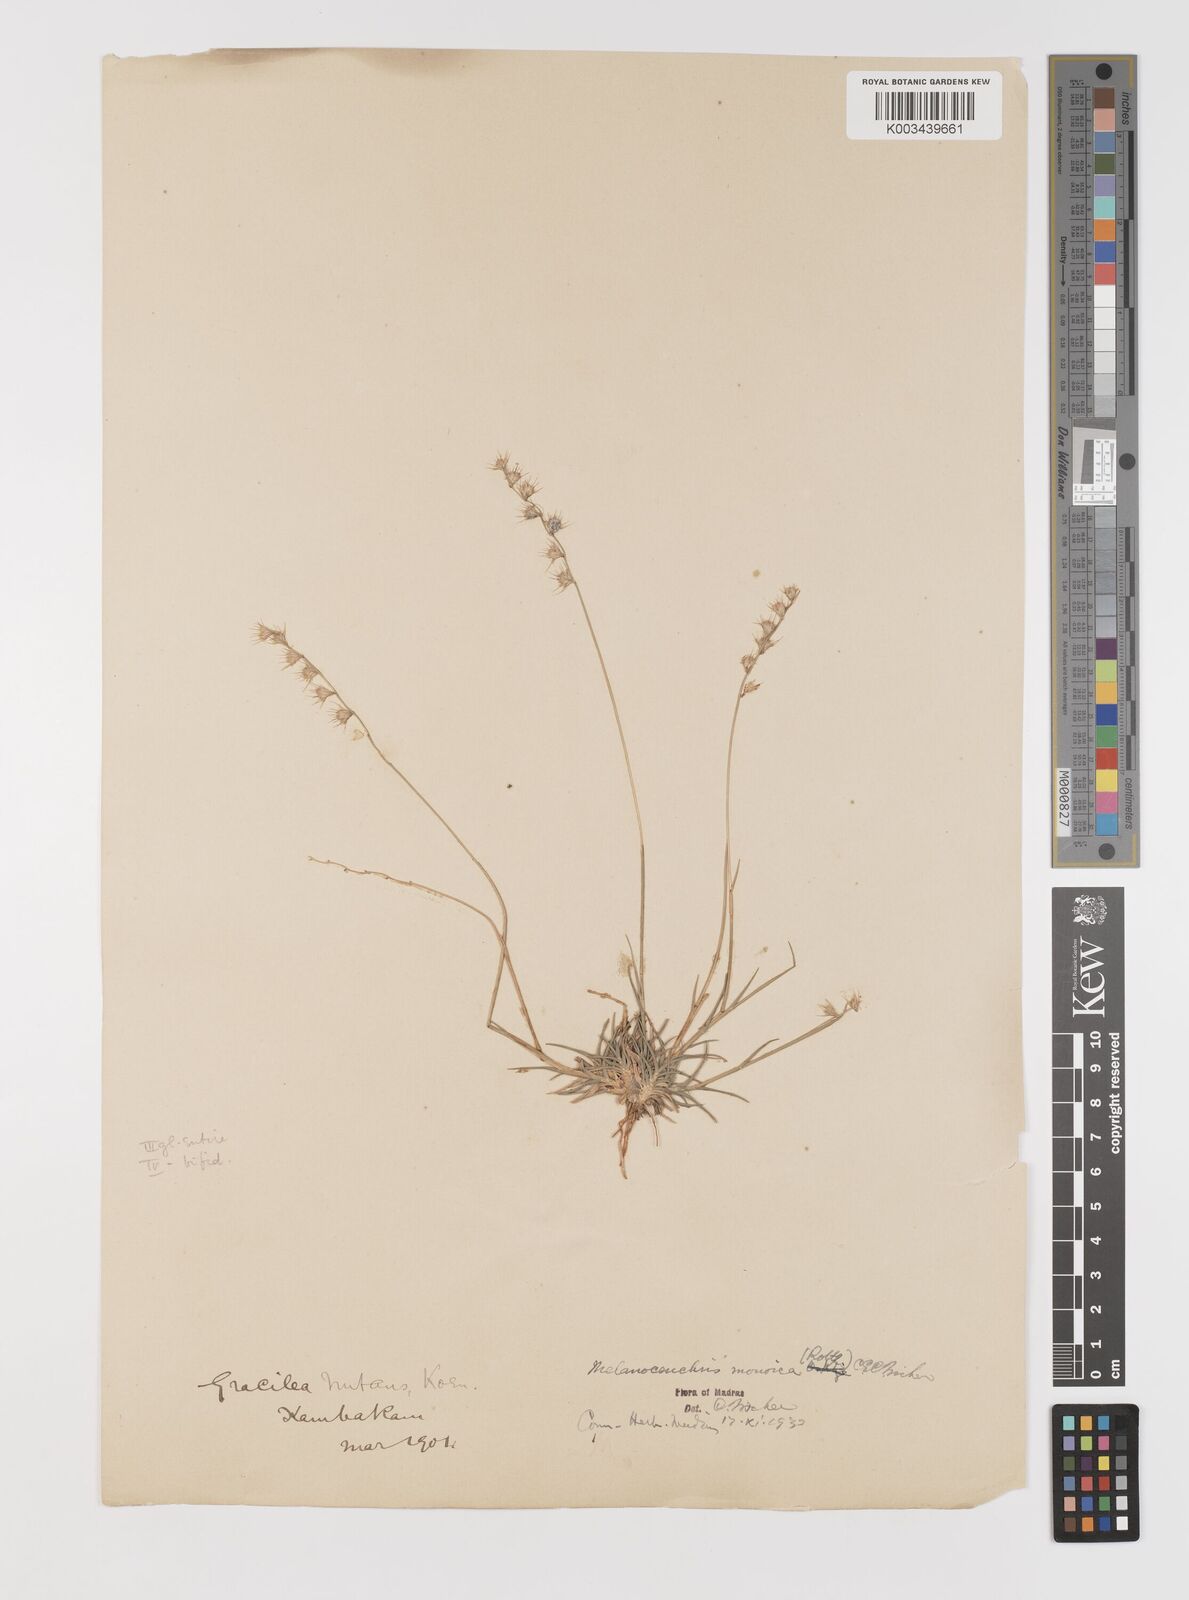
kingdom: Plantae
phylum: Tracheophyta
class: Liliopsida
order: Poales
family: Poaceae
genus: Melanocenchris
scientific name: Melanocenchris rothiana
